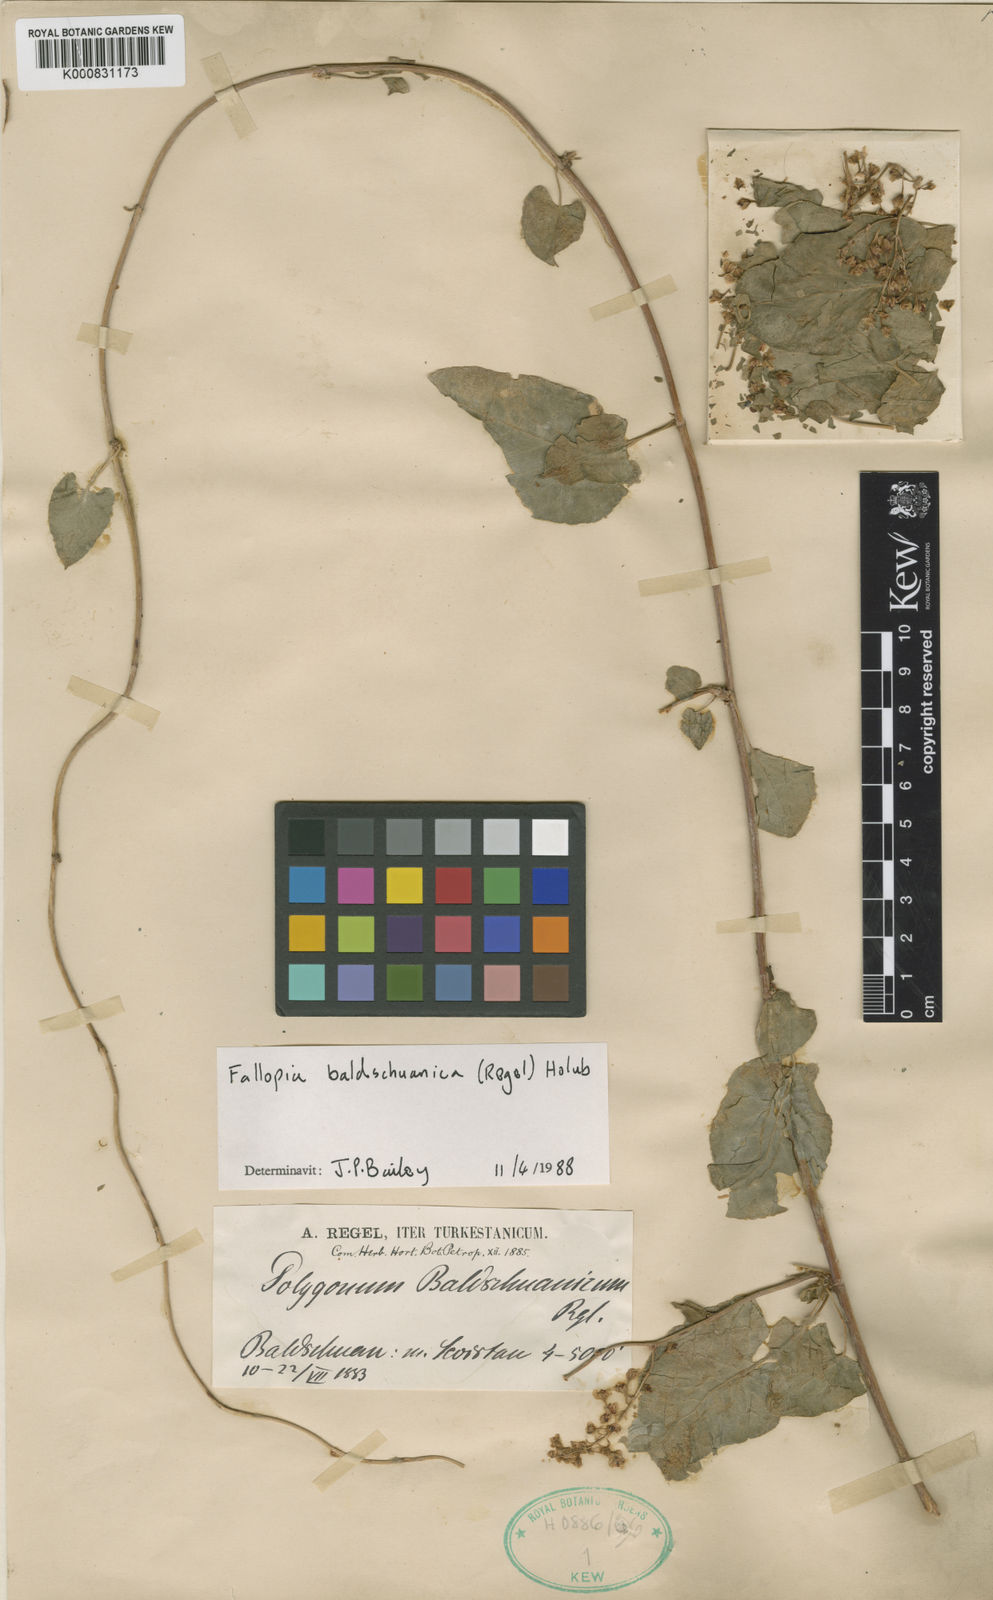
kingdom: Plantae
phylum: Tracheophyta
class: Magnoliopsida
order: Caryophyllales
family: Polygonaceae
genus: Fallopia
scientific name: Fallopia baldschuanica
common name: Russian-vine
